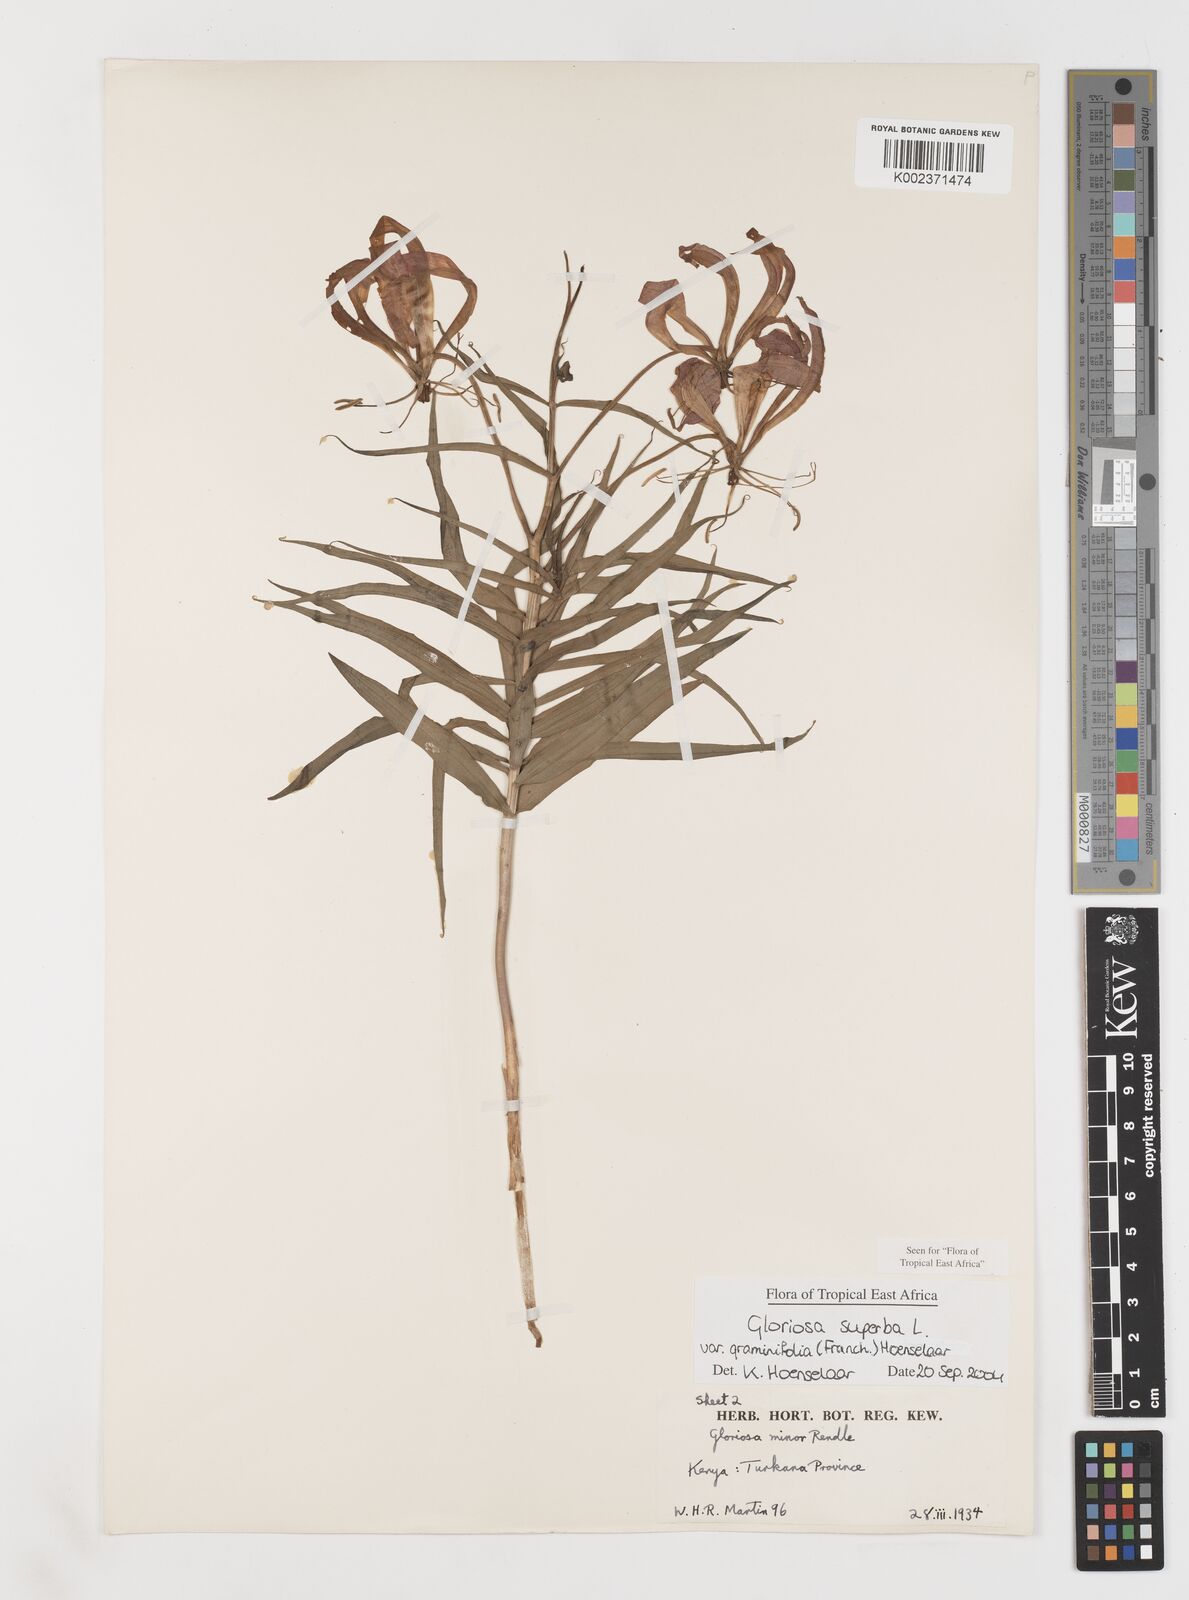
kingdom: Plantae
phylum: Tracheophyta
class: Liliopsida
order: Liliales
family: Colchicaceae
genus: Gloriosa
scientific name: Gloriosa baudii
